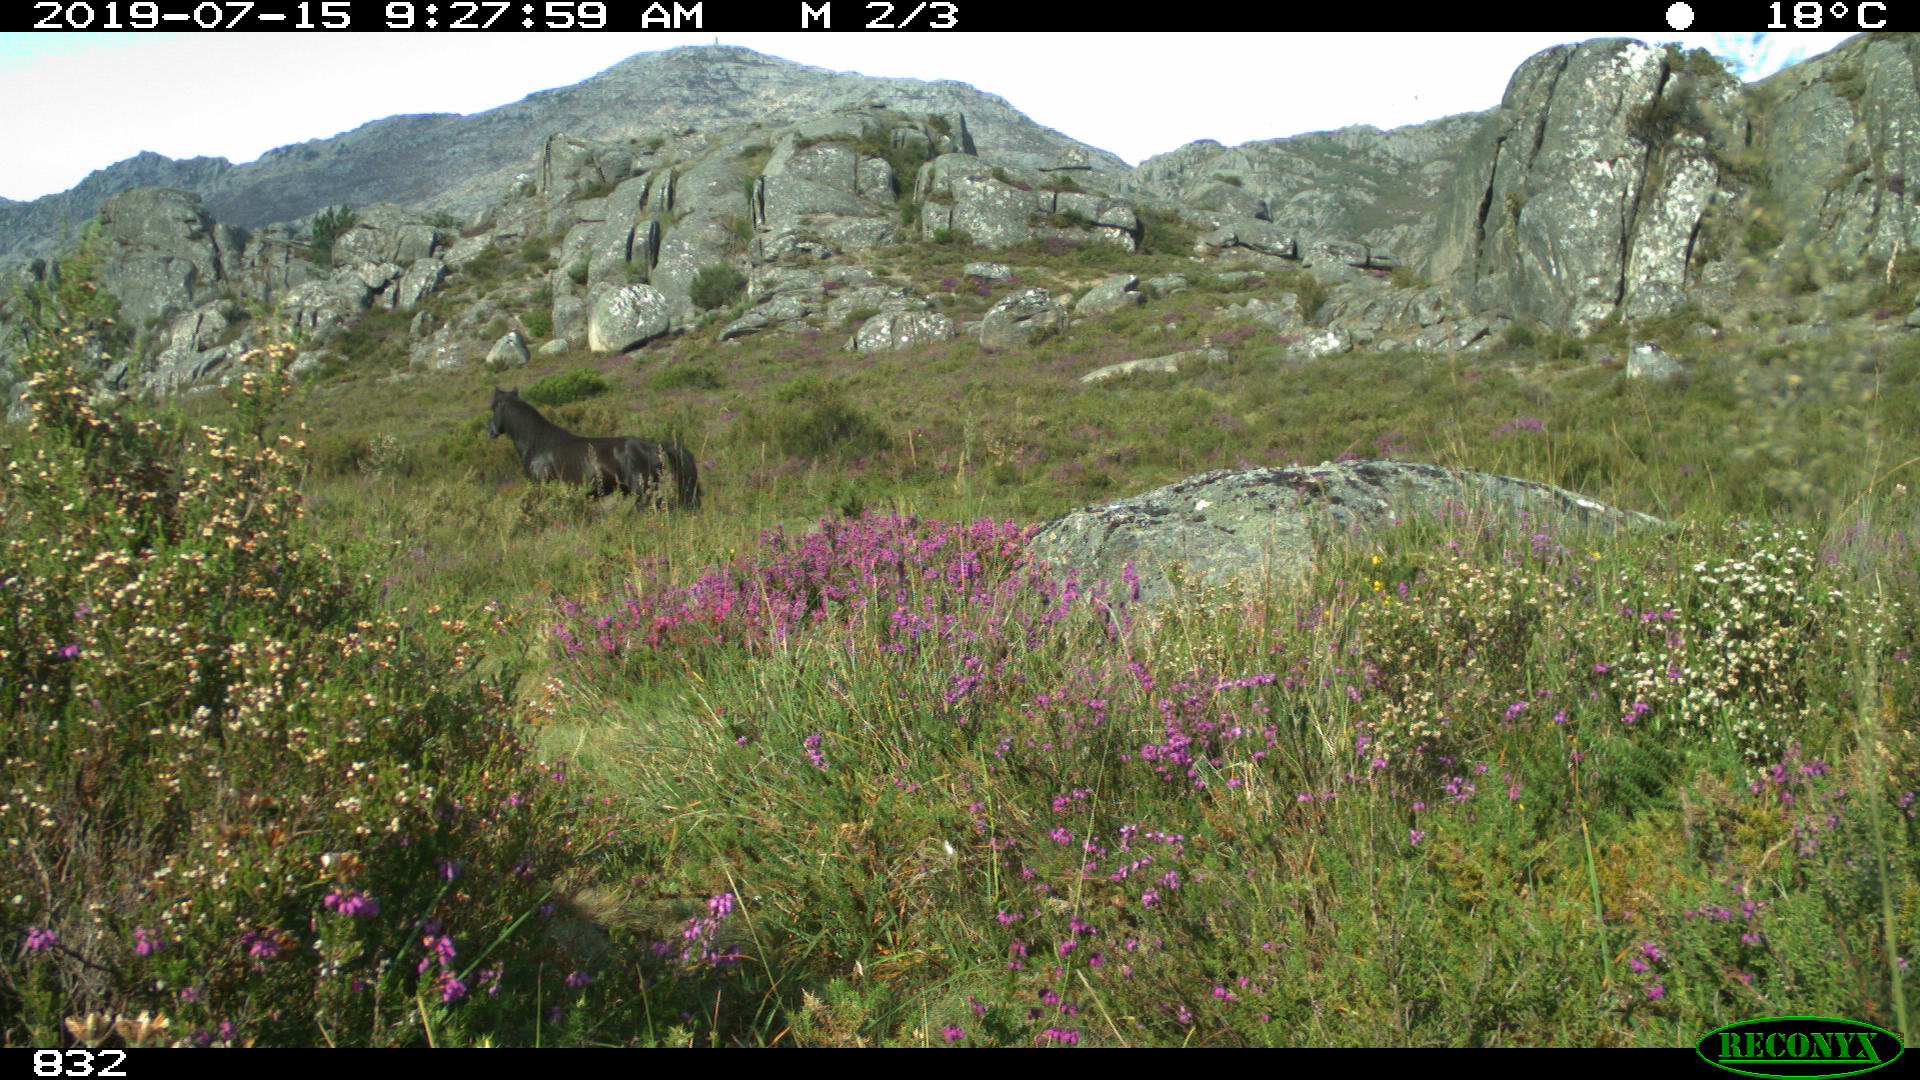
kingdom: Animalia
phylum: Chordata
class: Mammalia
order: Perissodactyla
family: Equidae
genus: Equus
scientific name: Equus caballus
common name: Horse
